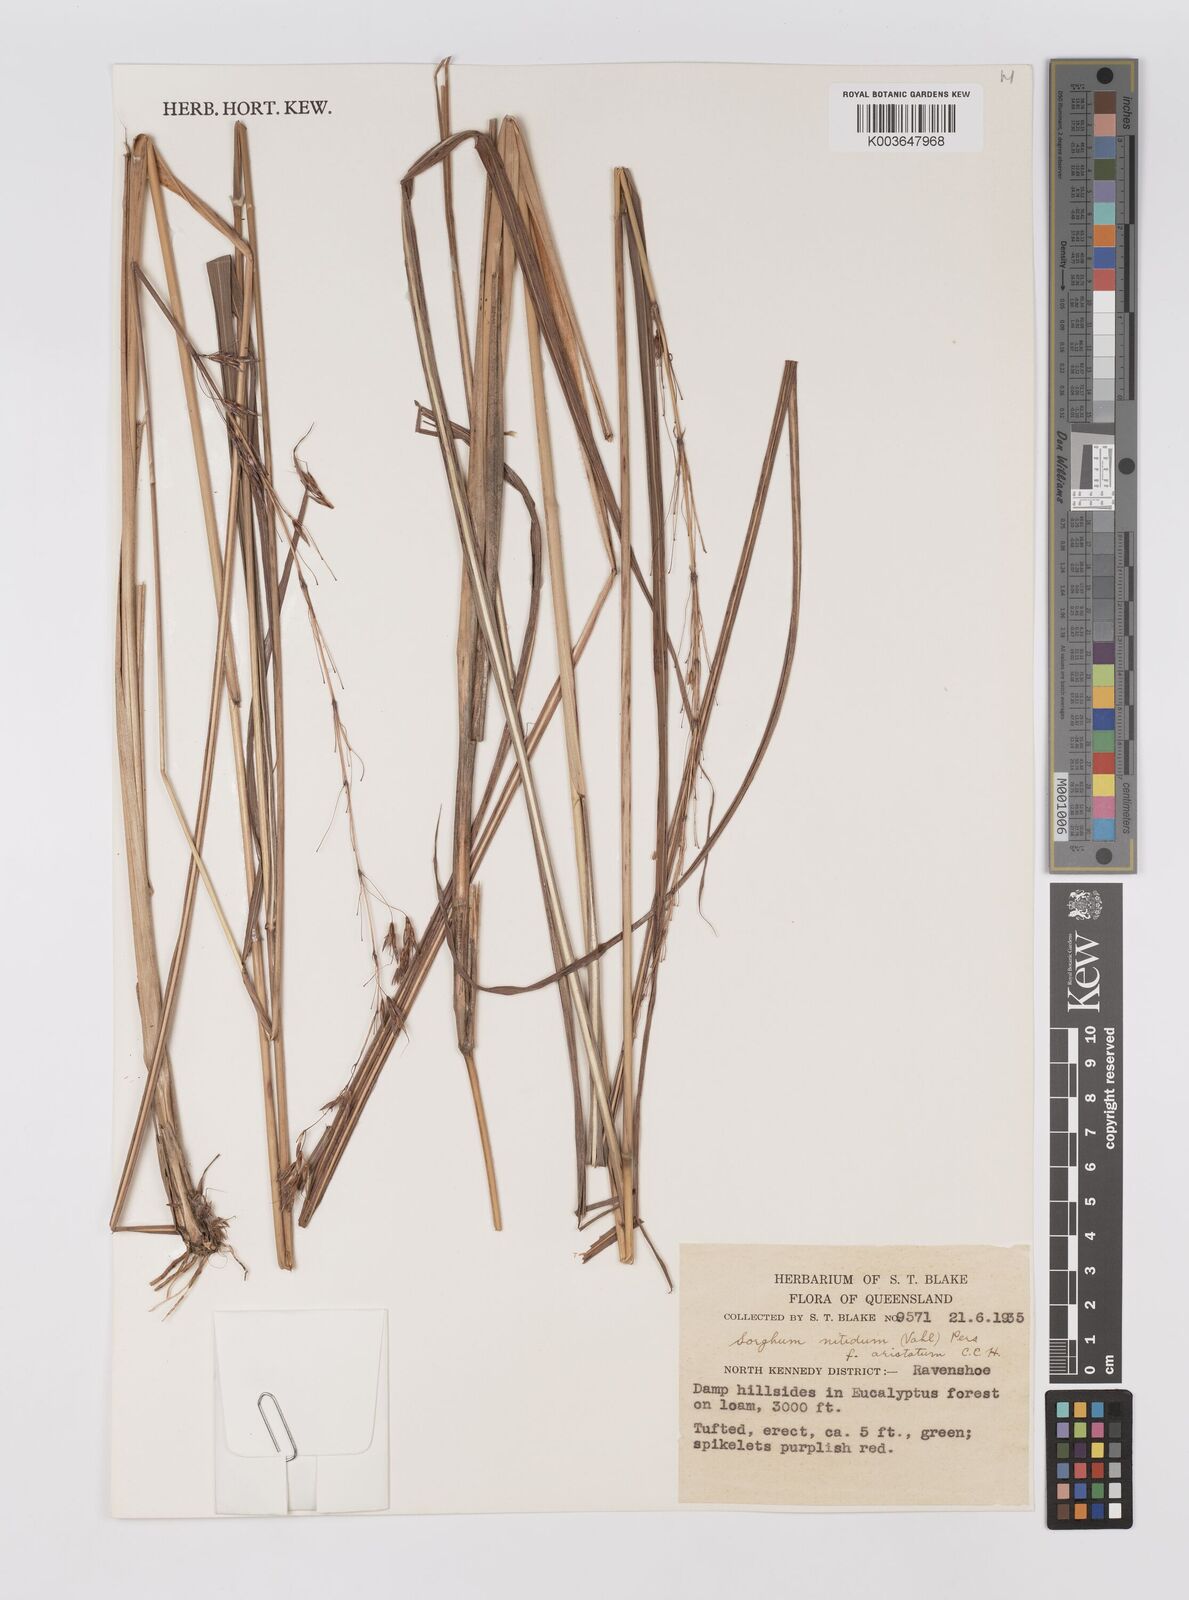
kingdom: Plantae
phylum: Tracheophyta
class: Liliopsida
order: Poales
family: Poaceae
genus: Sorghum
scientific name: Sorghum nitidum
